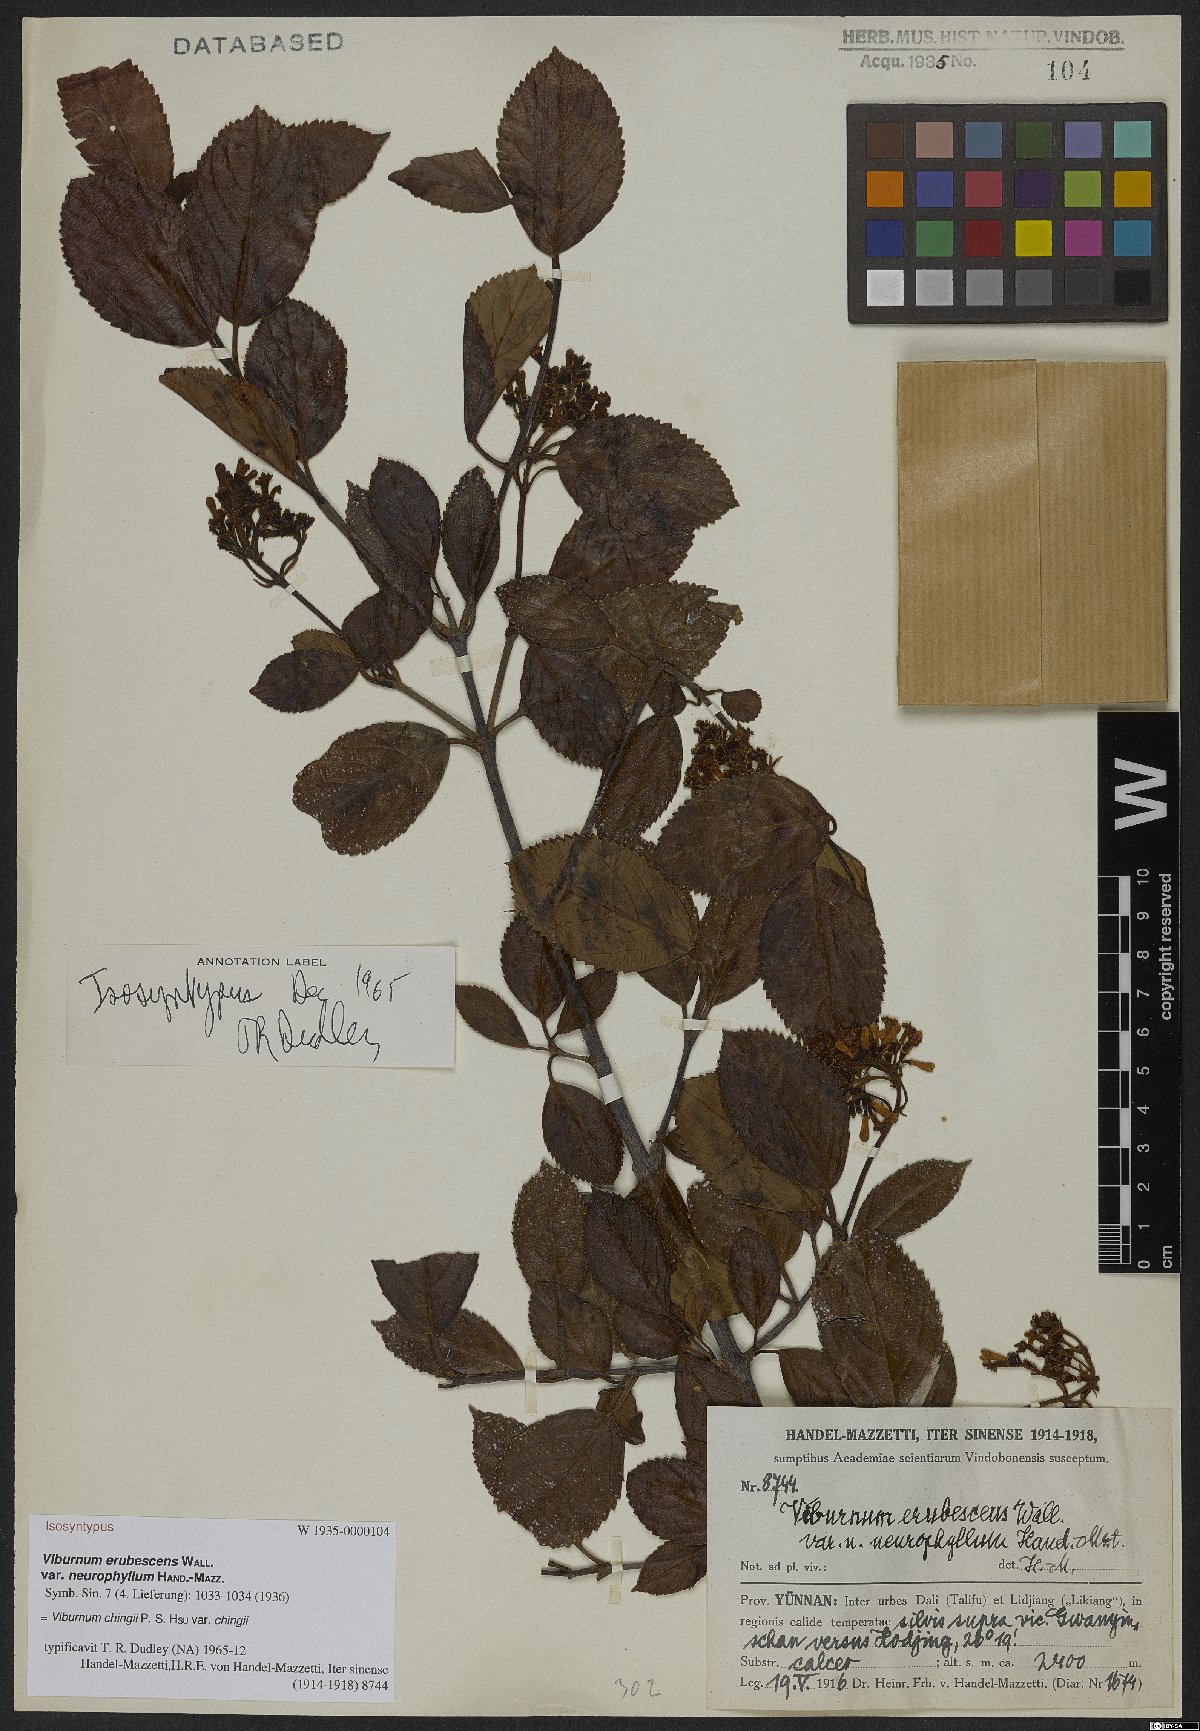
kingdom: Plantae
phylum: Tracheophyta
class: Magnoliopsida
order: Dipsacales
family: Viburnaceae
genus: Viburnum
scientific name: Viburnum chingii
